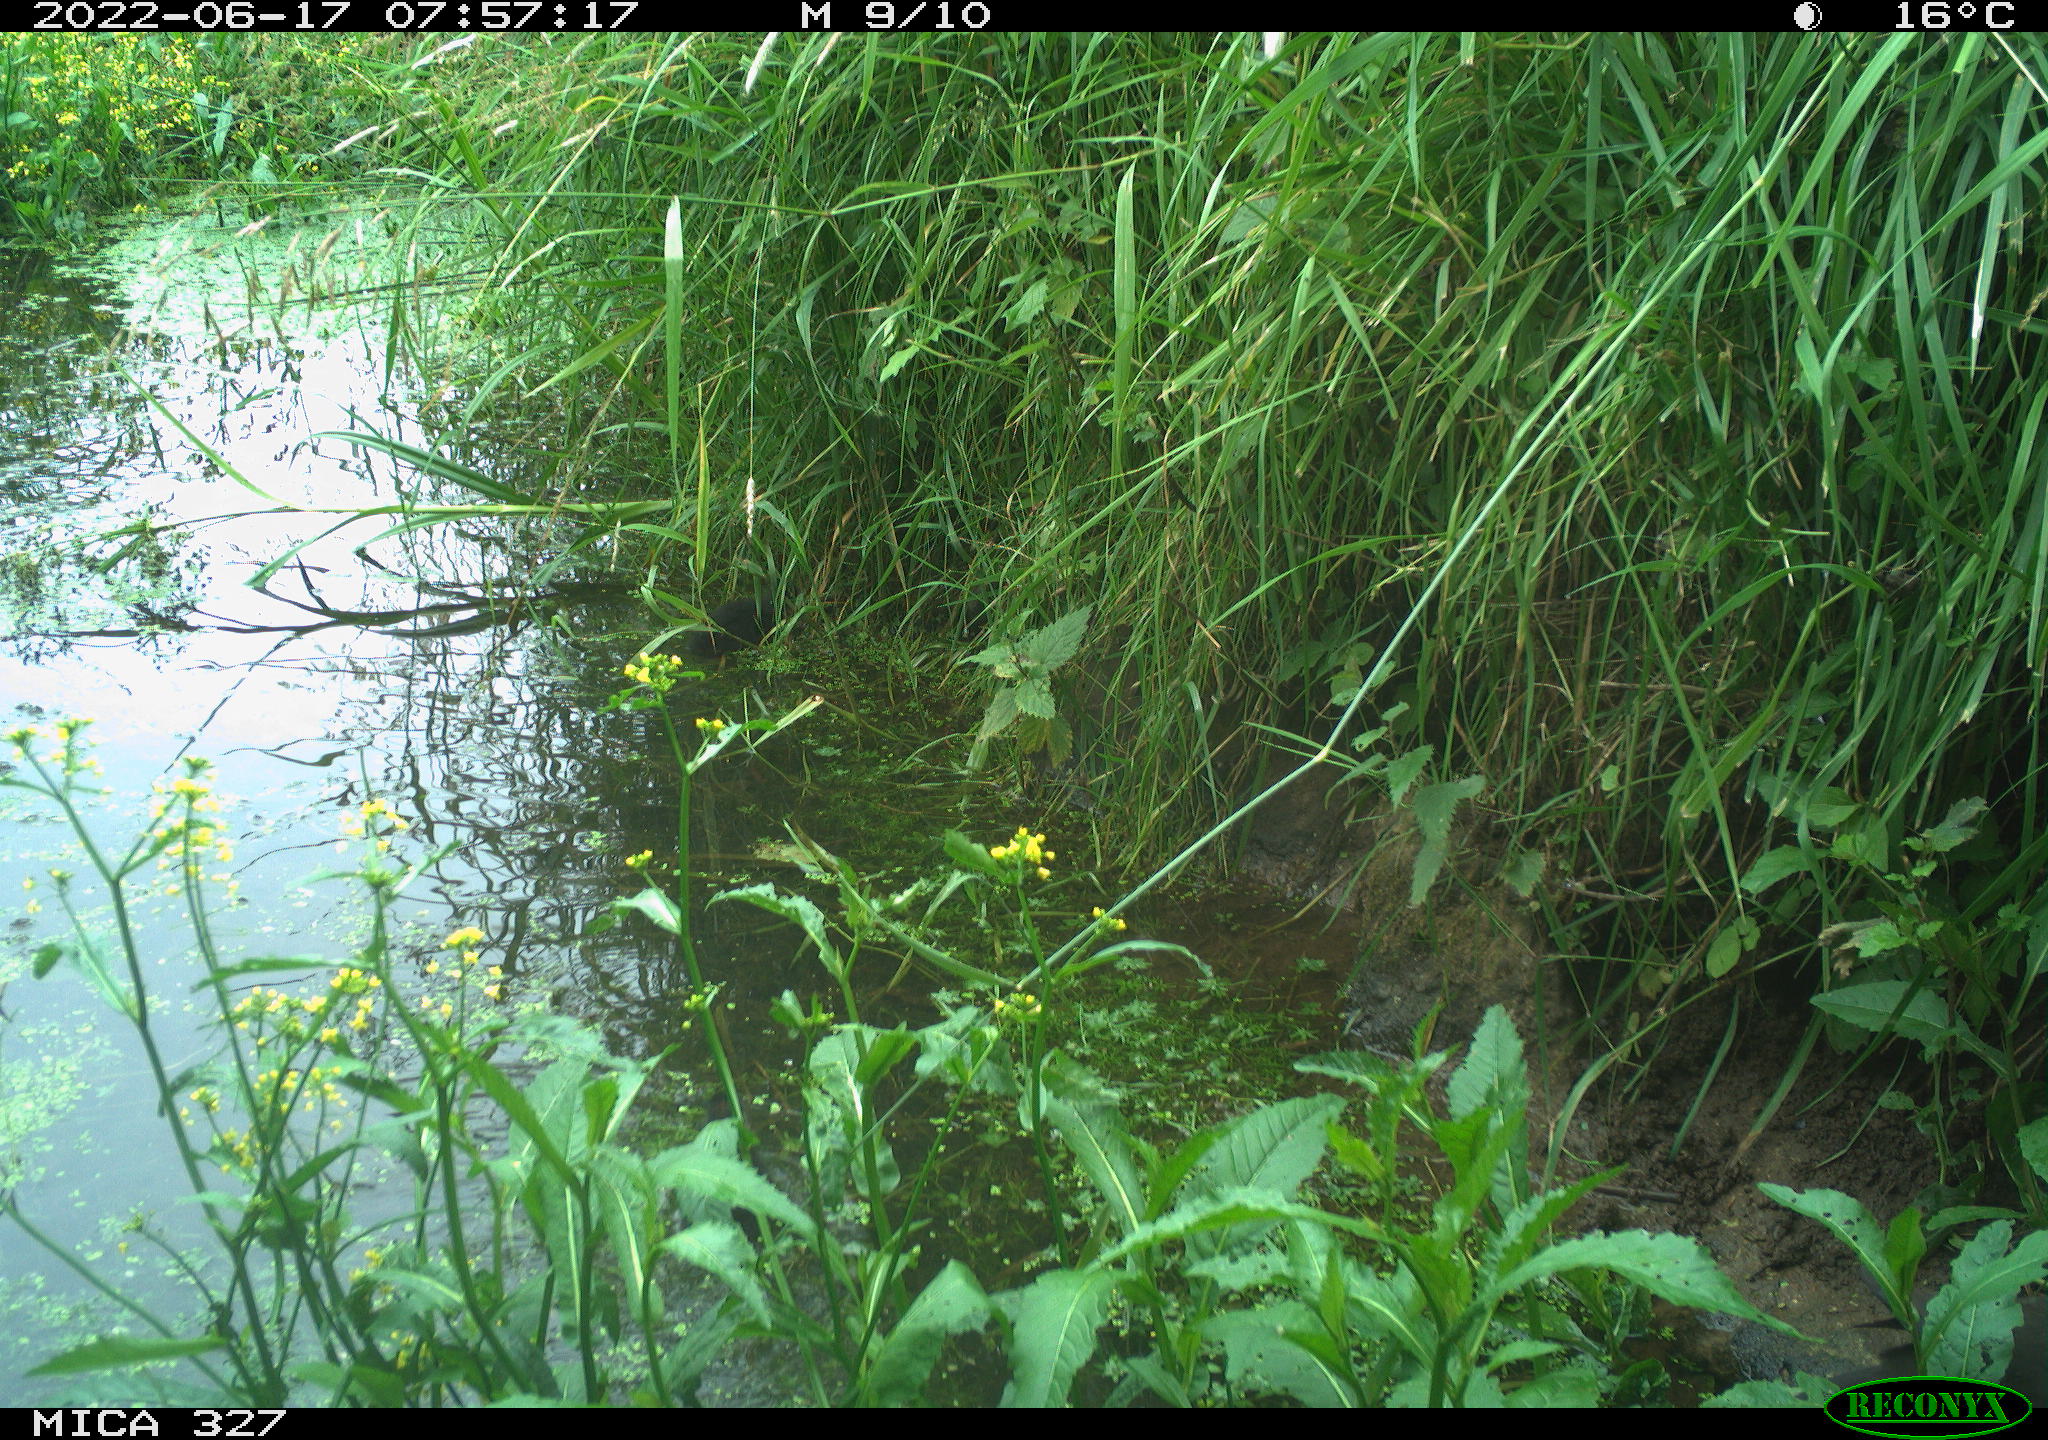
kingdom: Animalia
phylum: Chordata
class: Aves
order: Gruiformes
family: Rallidae
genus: Gallinula
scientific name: Gallinula chloropus
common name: Common moorhen
